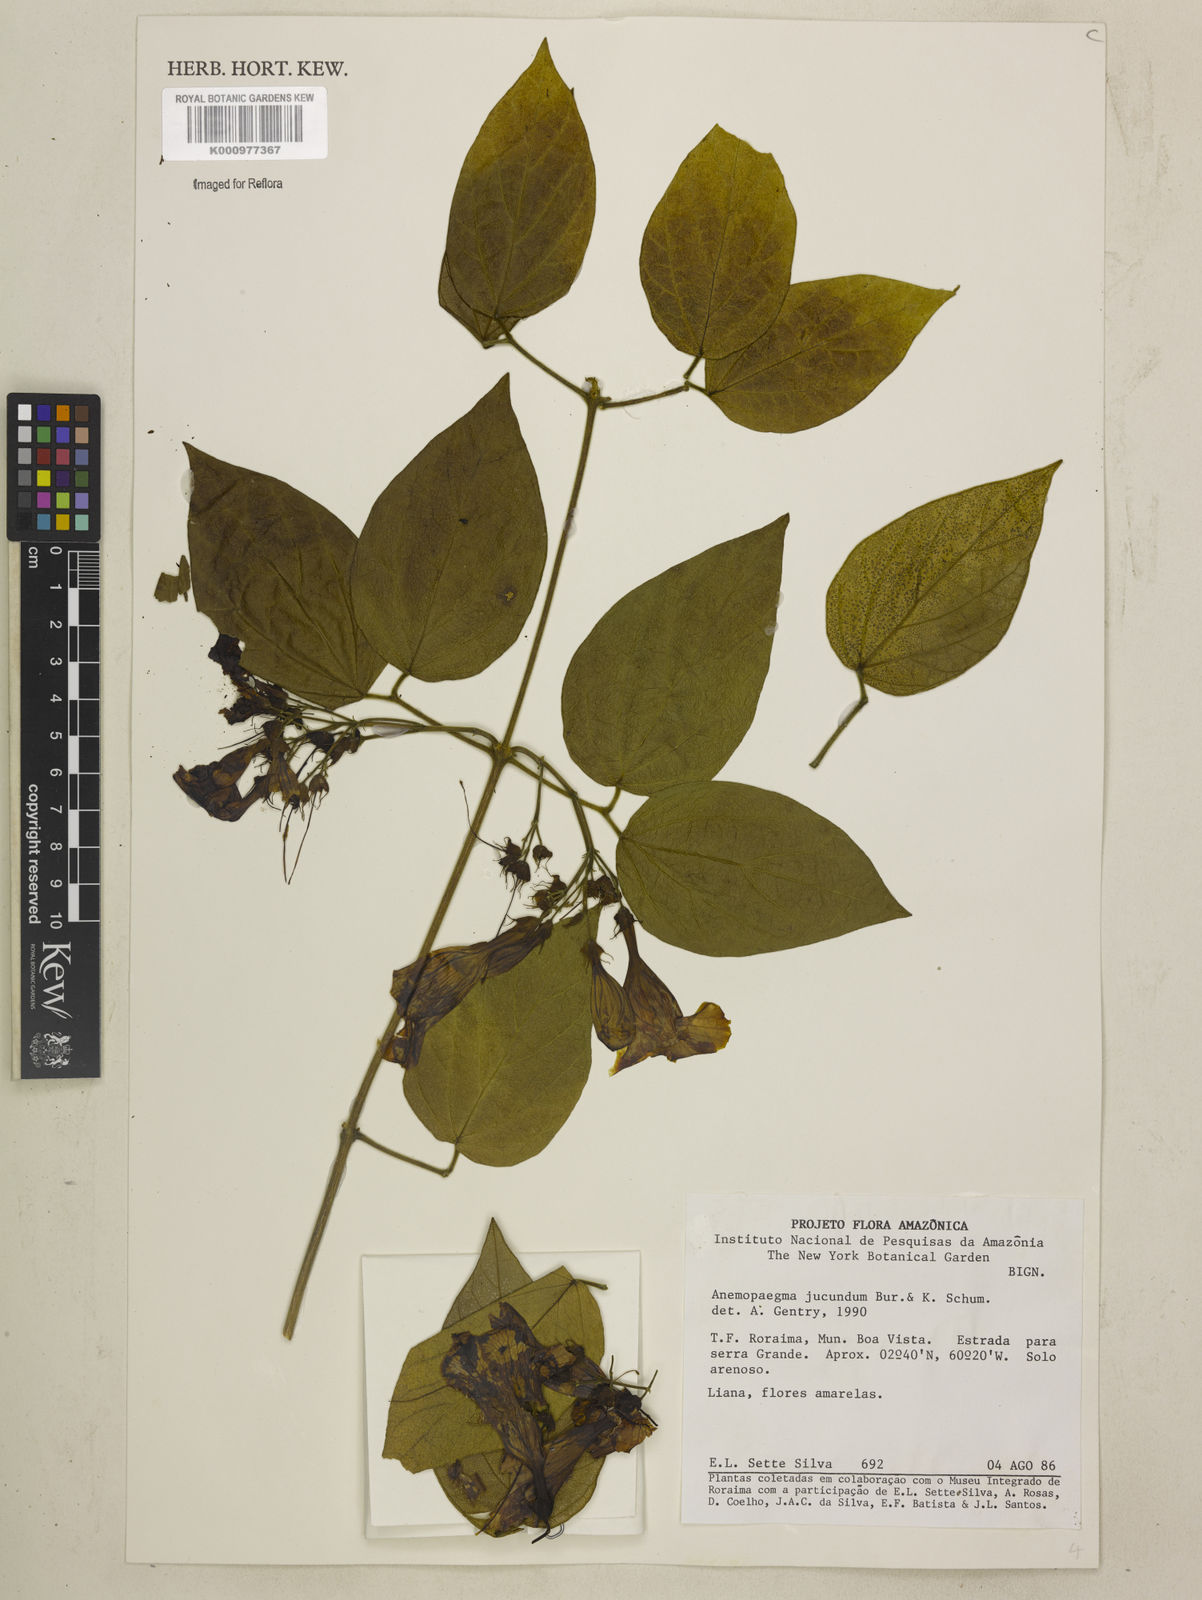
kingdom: Plantae
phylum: Tracheophyta
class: Magnoliopsida
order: Lamiales
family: Bignoniaceae
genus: Anemopaegma
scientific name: Anemopaegma jucundum
